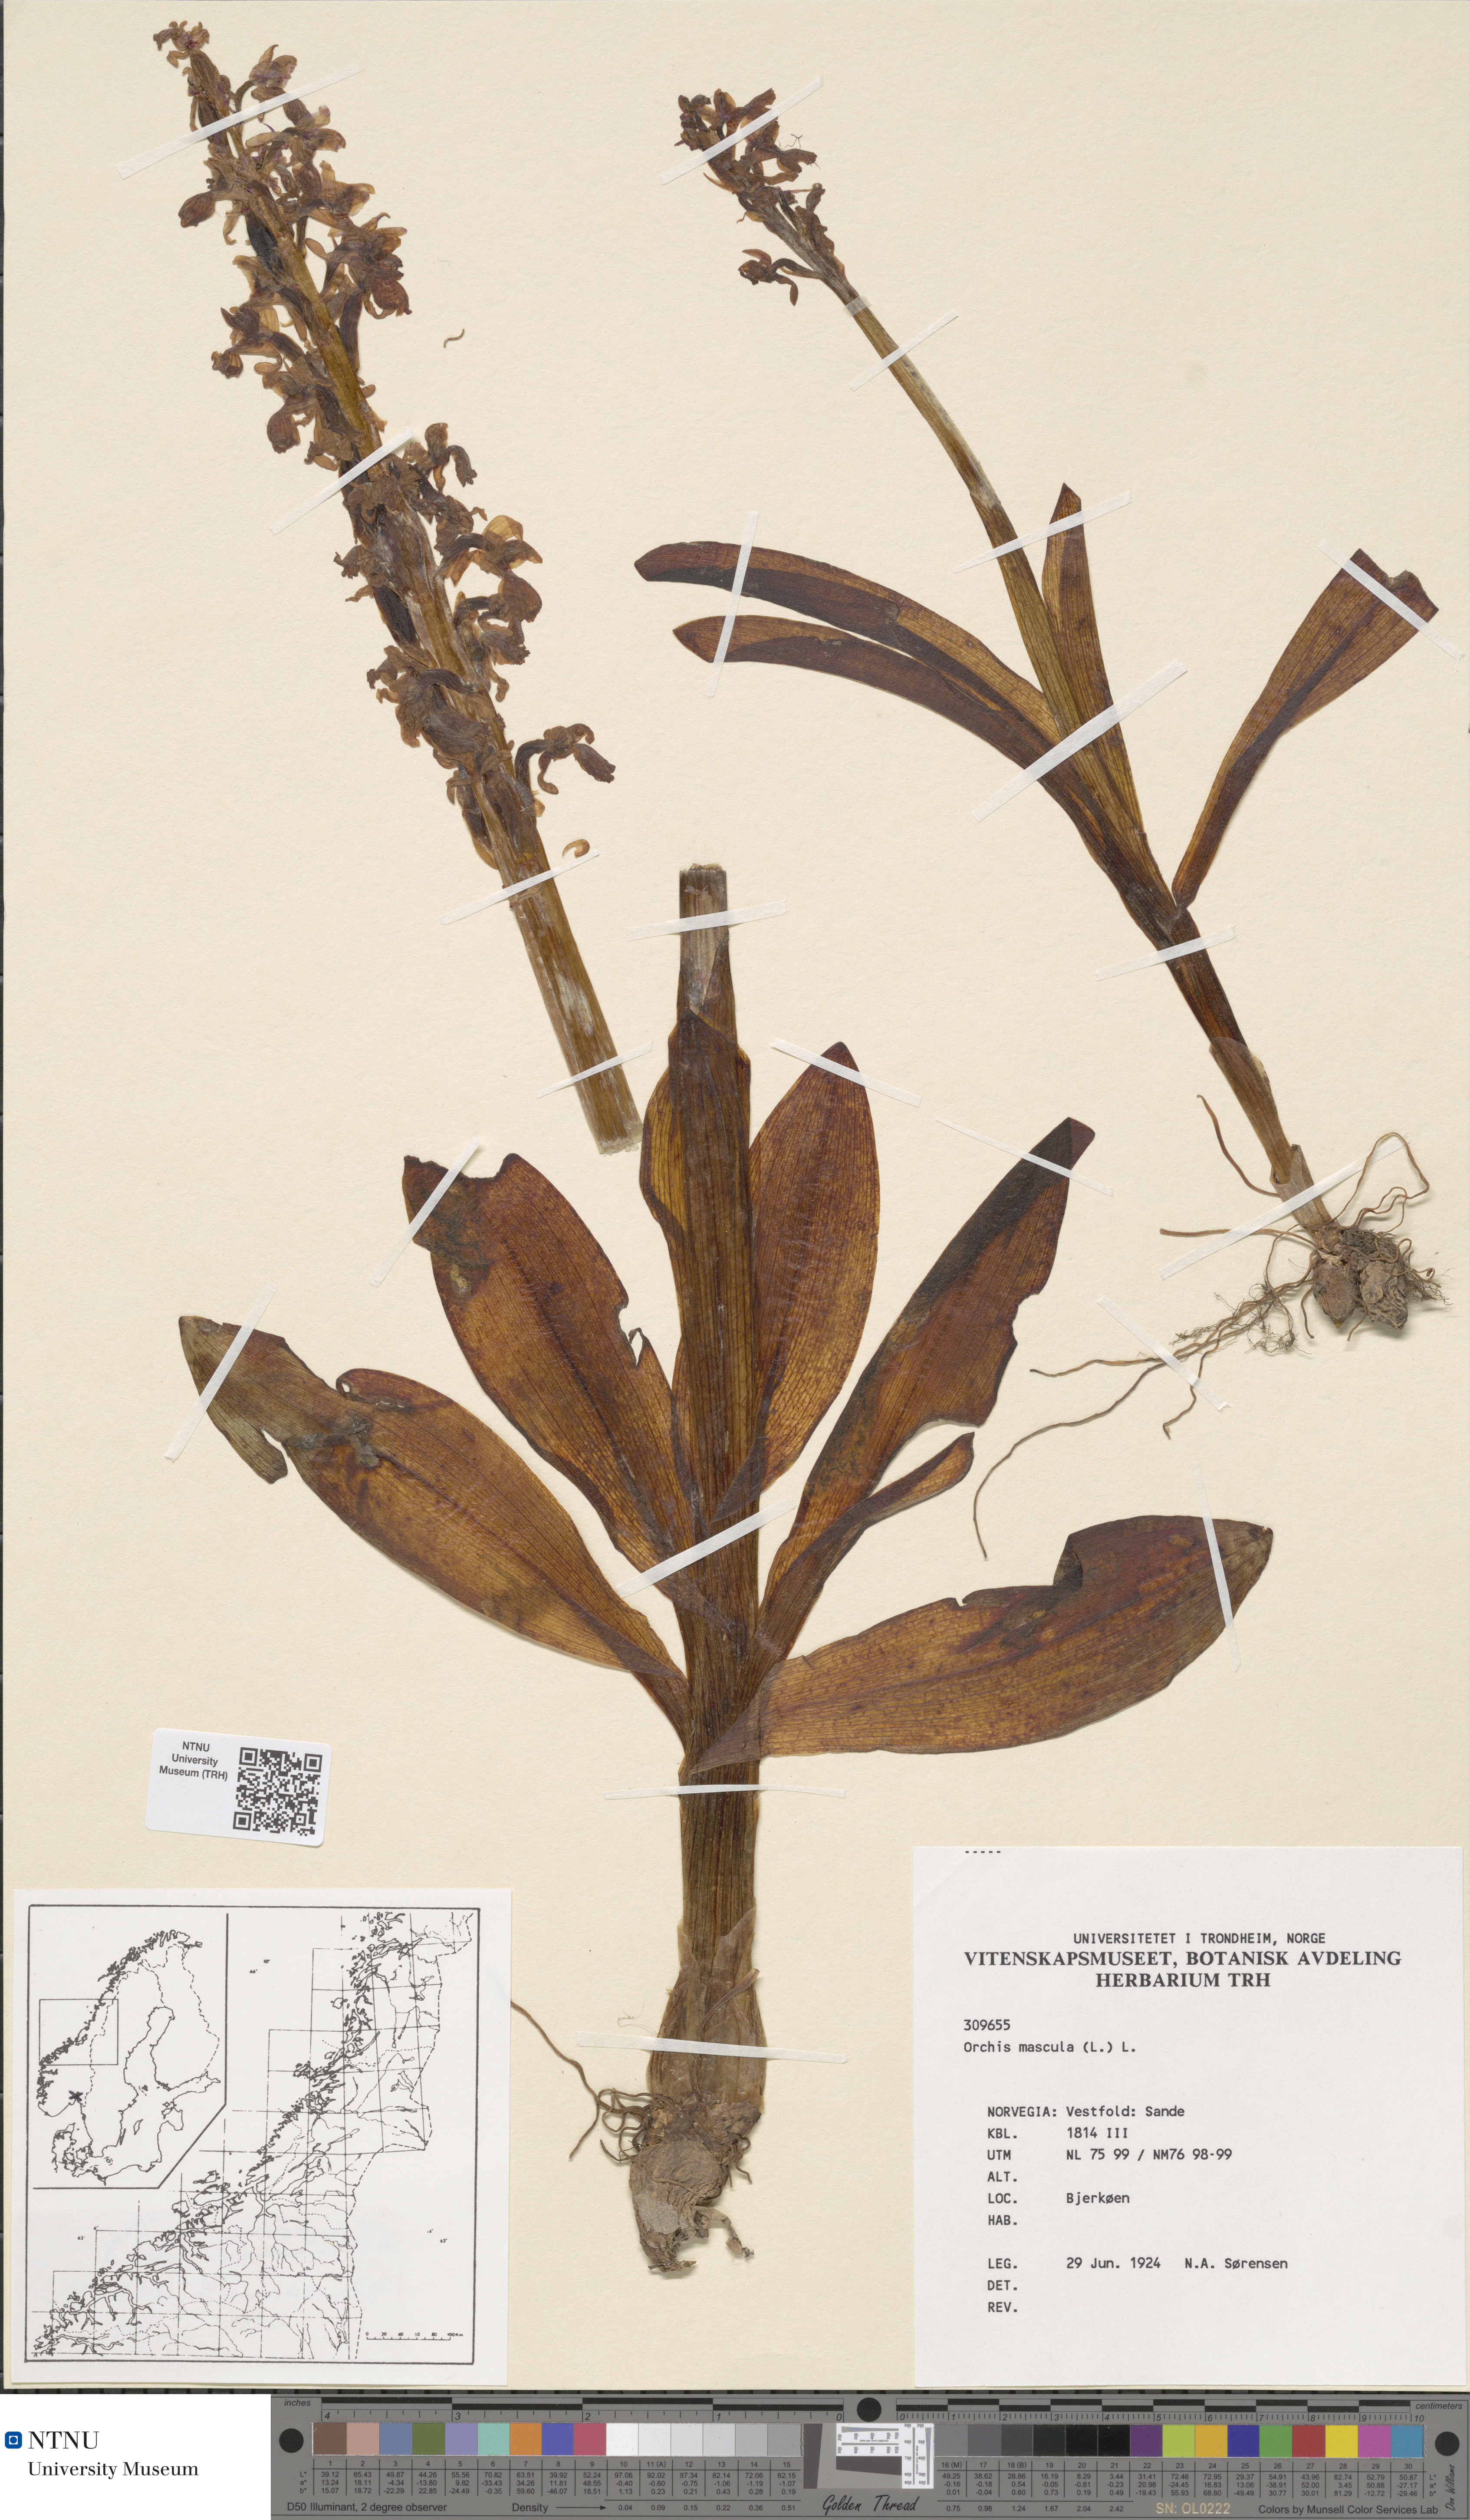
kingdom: Plantae
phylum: Tracheophyta
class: Liliopsida
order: Asparagales
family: Orchidaceae
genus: Orchis
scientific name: Orchis mascula
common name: Early-purple orchid
